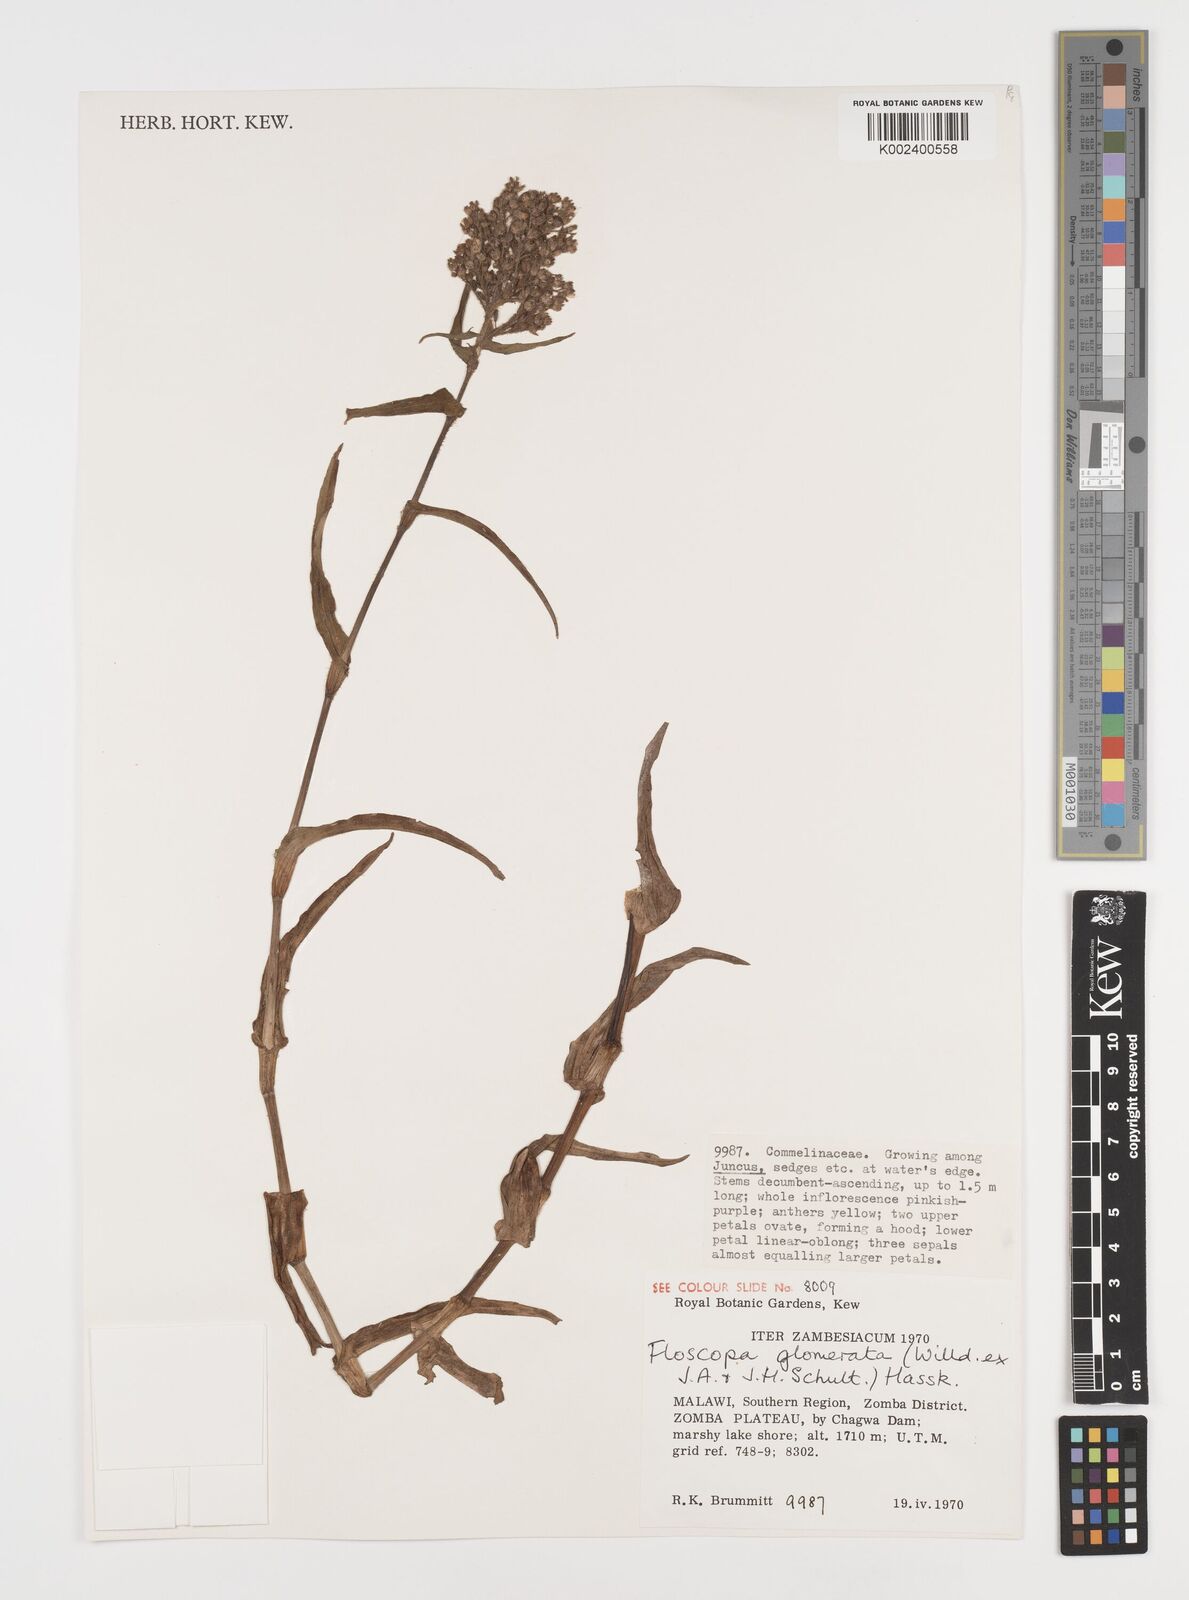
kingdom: Plantae
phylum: Tracheophyta
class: Liliopsida
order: Commelinales
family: Commelinaceae
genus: Floscopa
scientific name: Floscopa glomerata
